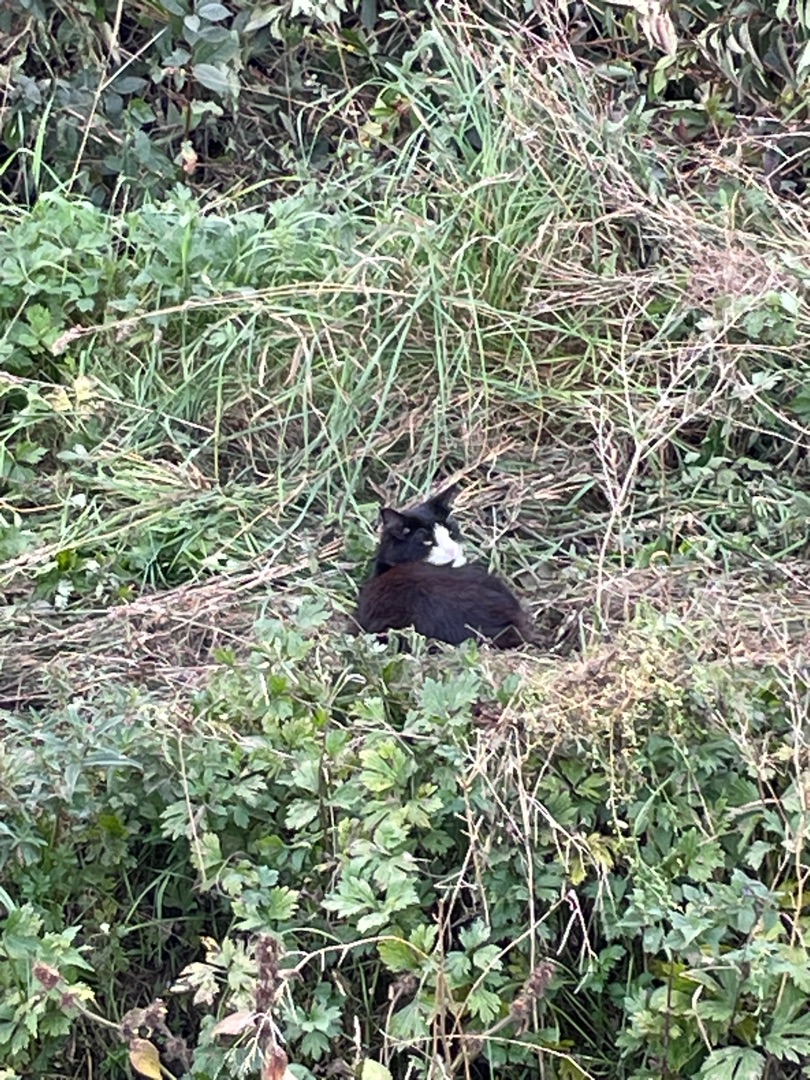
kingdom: Animalia
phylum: Chordata
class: Mammalia
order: Carnivora
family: Felidae
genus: Felis
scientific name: Felis catus
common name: Tamkat
